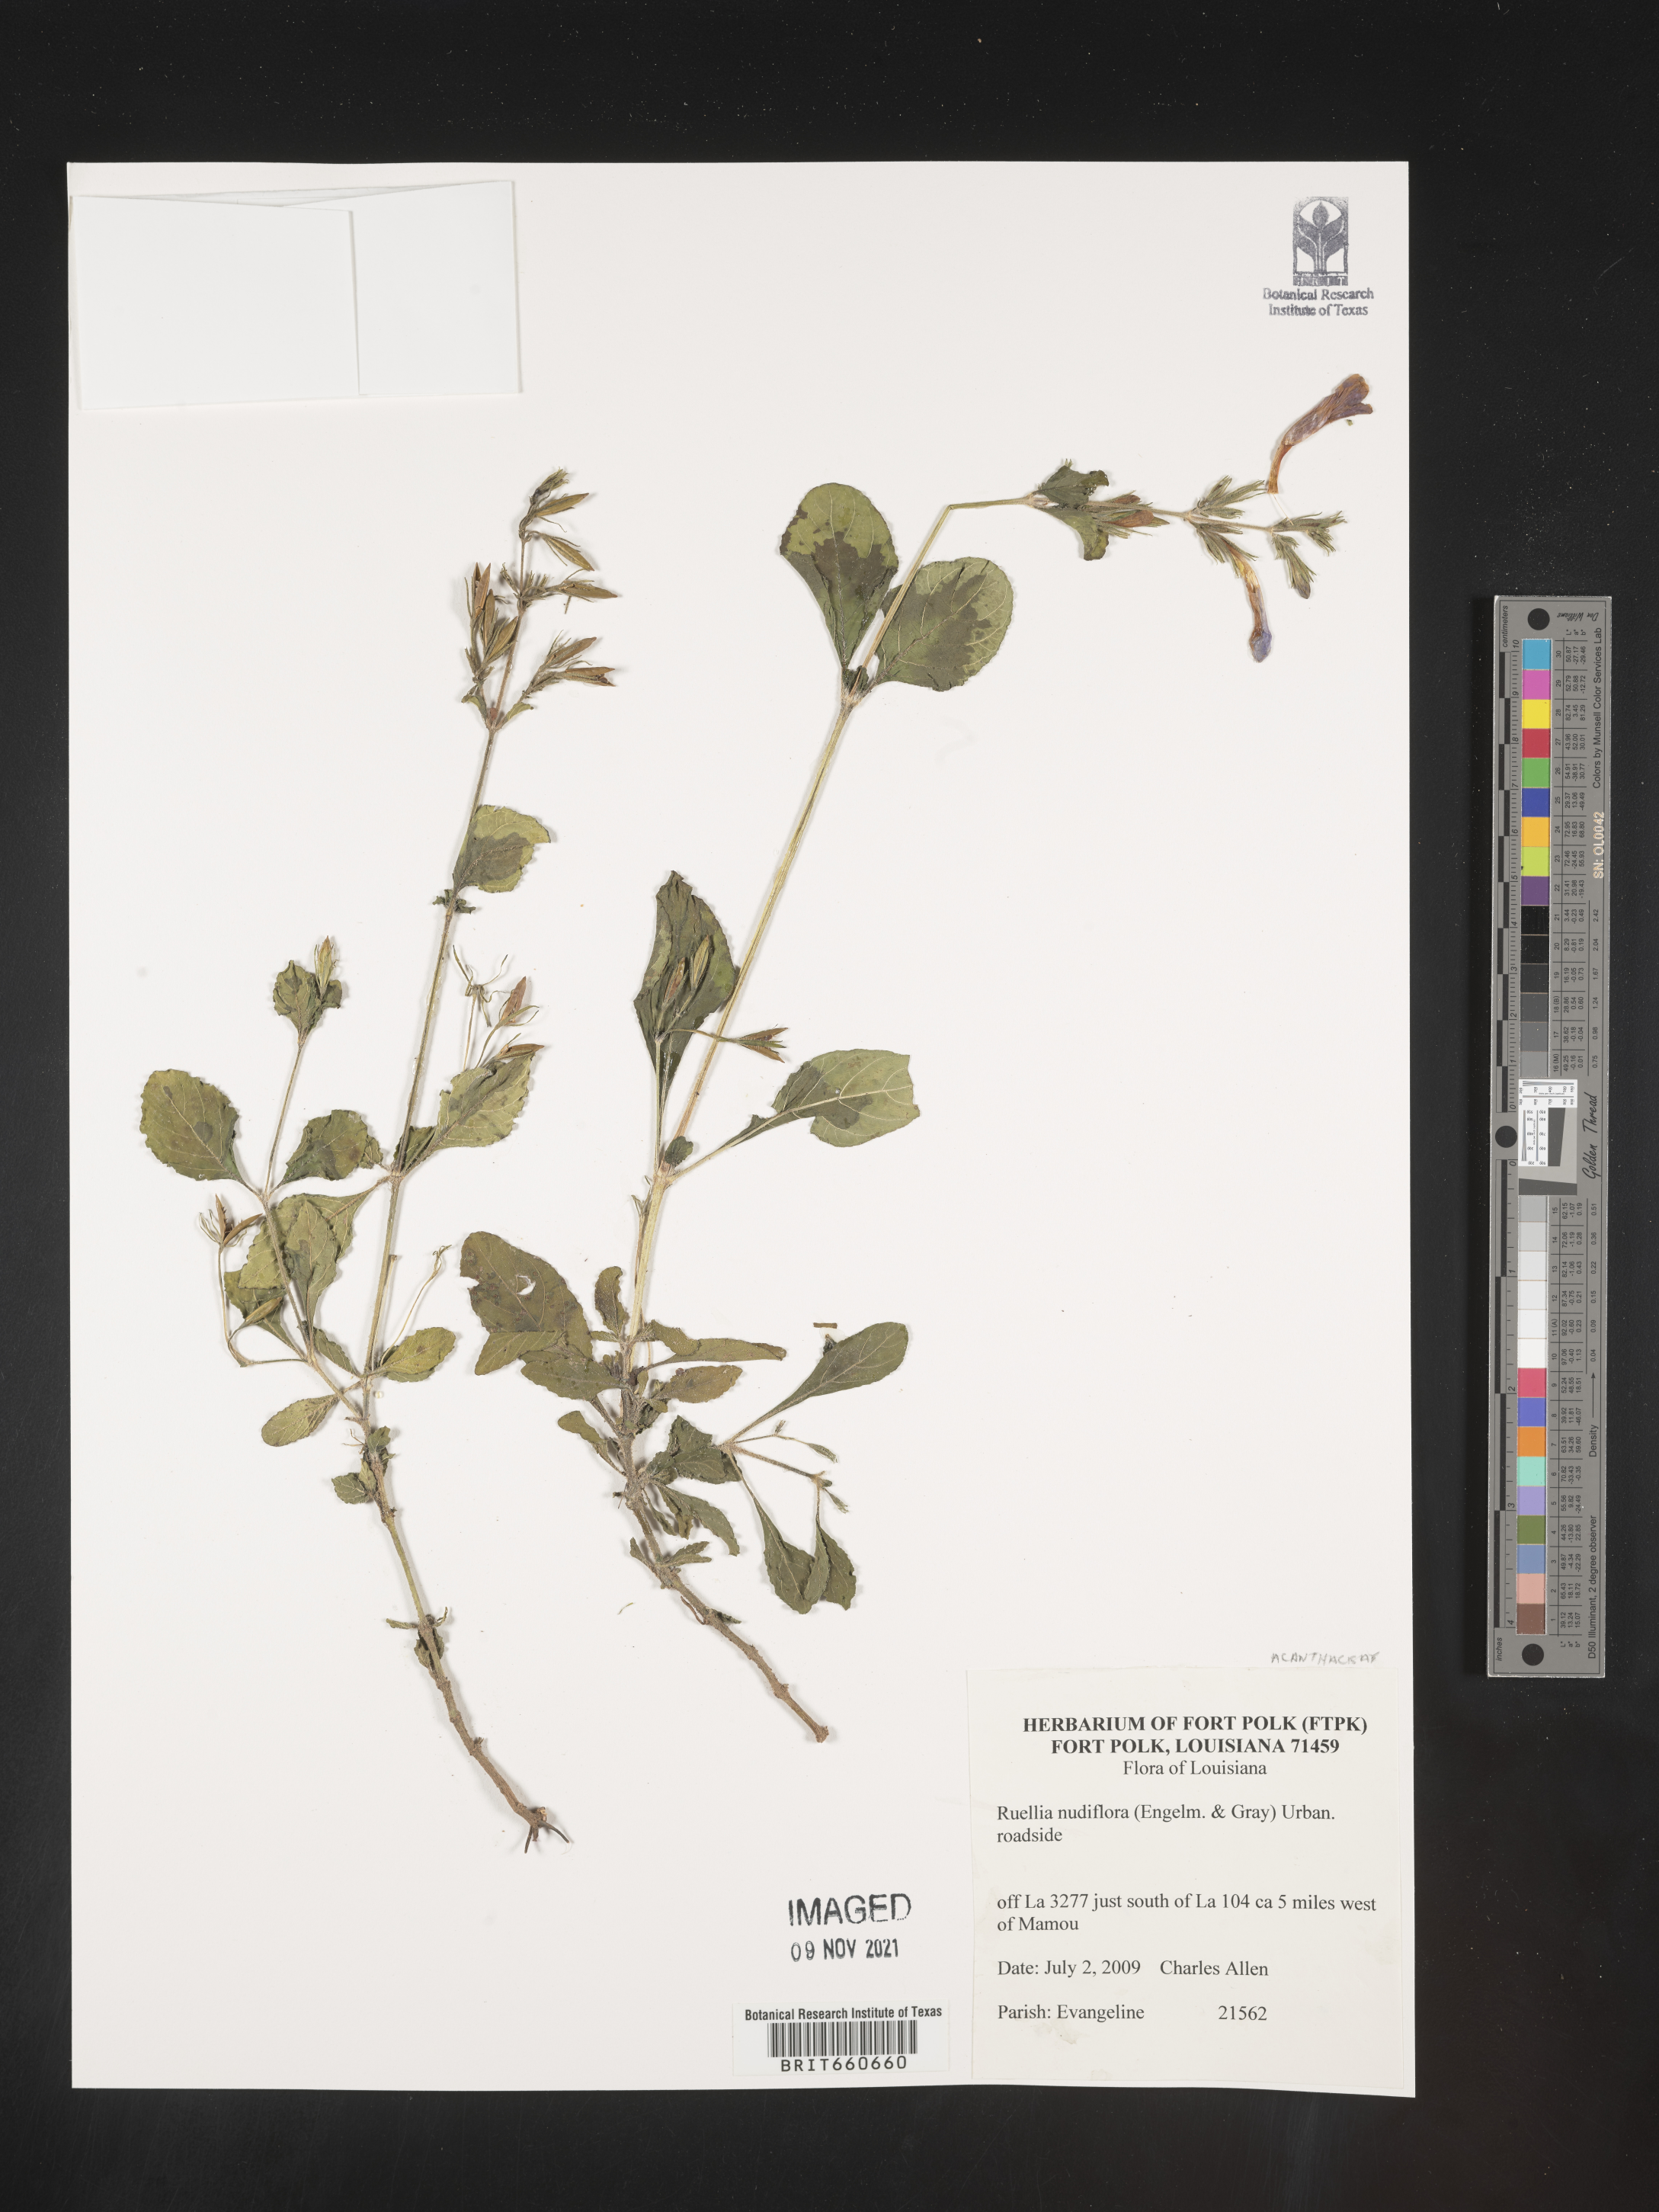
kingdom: Plantae
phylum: Tracheophyta
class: Magnoliopsida
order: Lamiales
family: Acanthaceae
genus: Ruellia
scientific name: Ruellia
